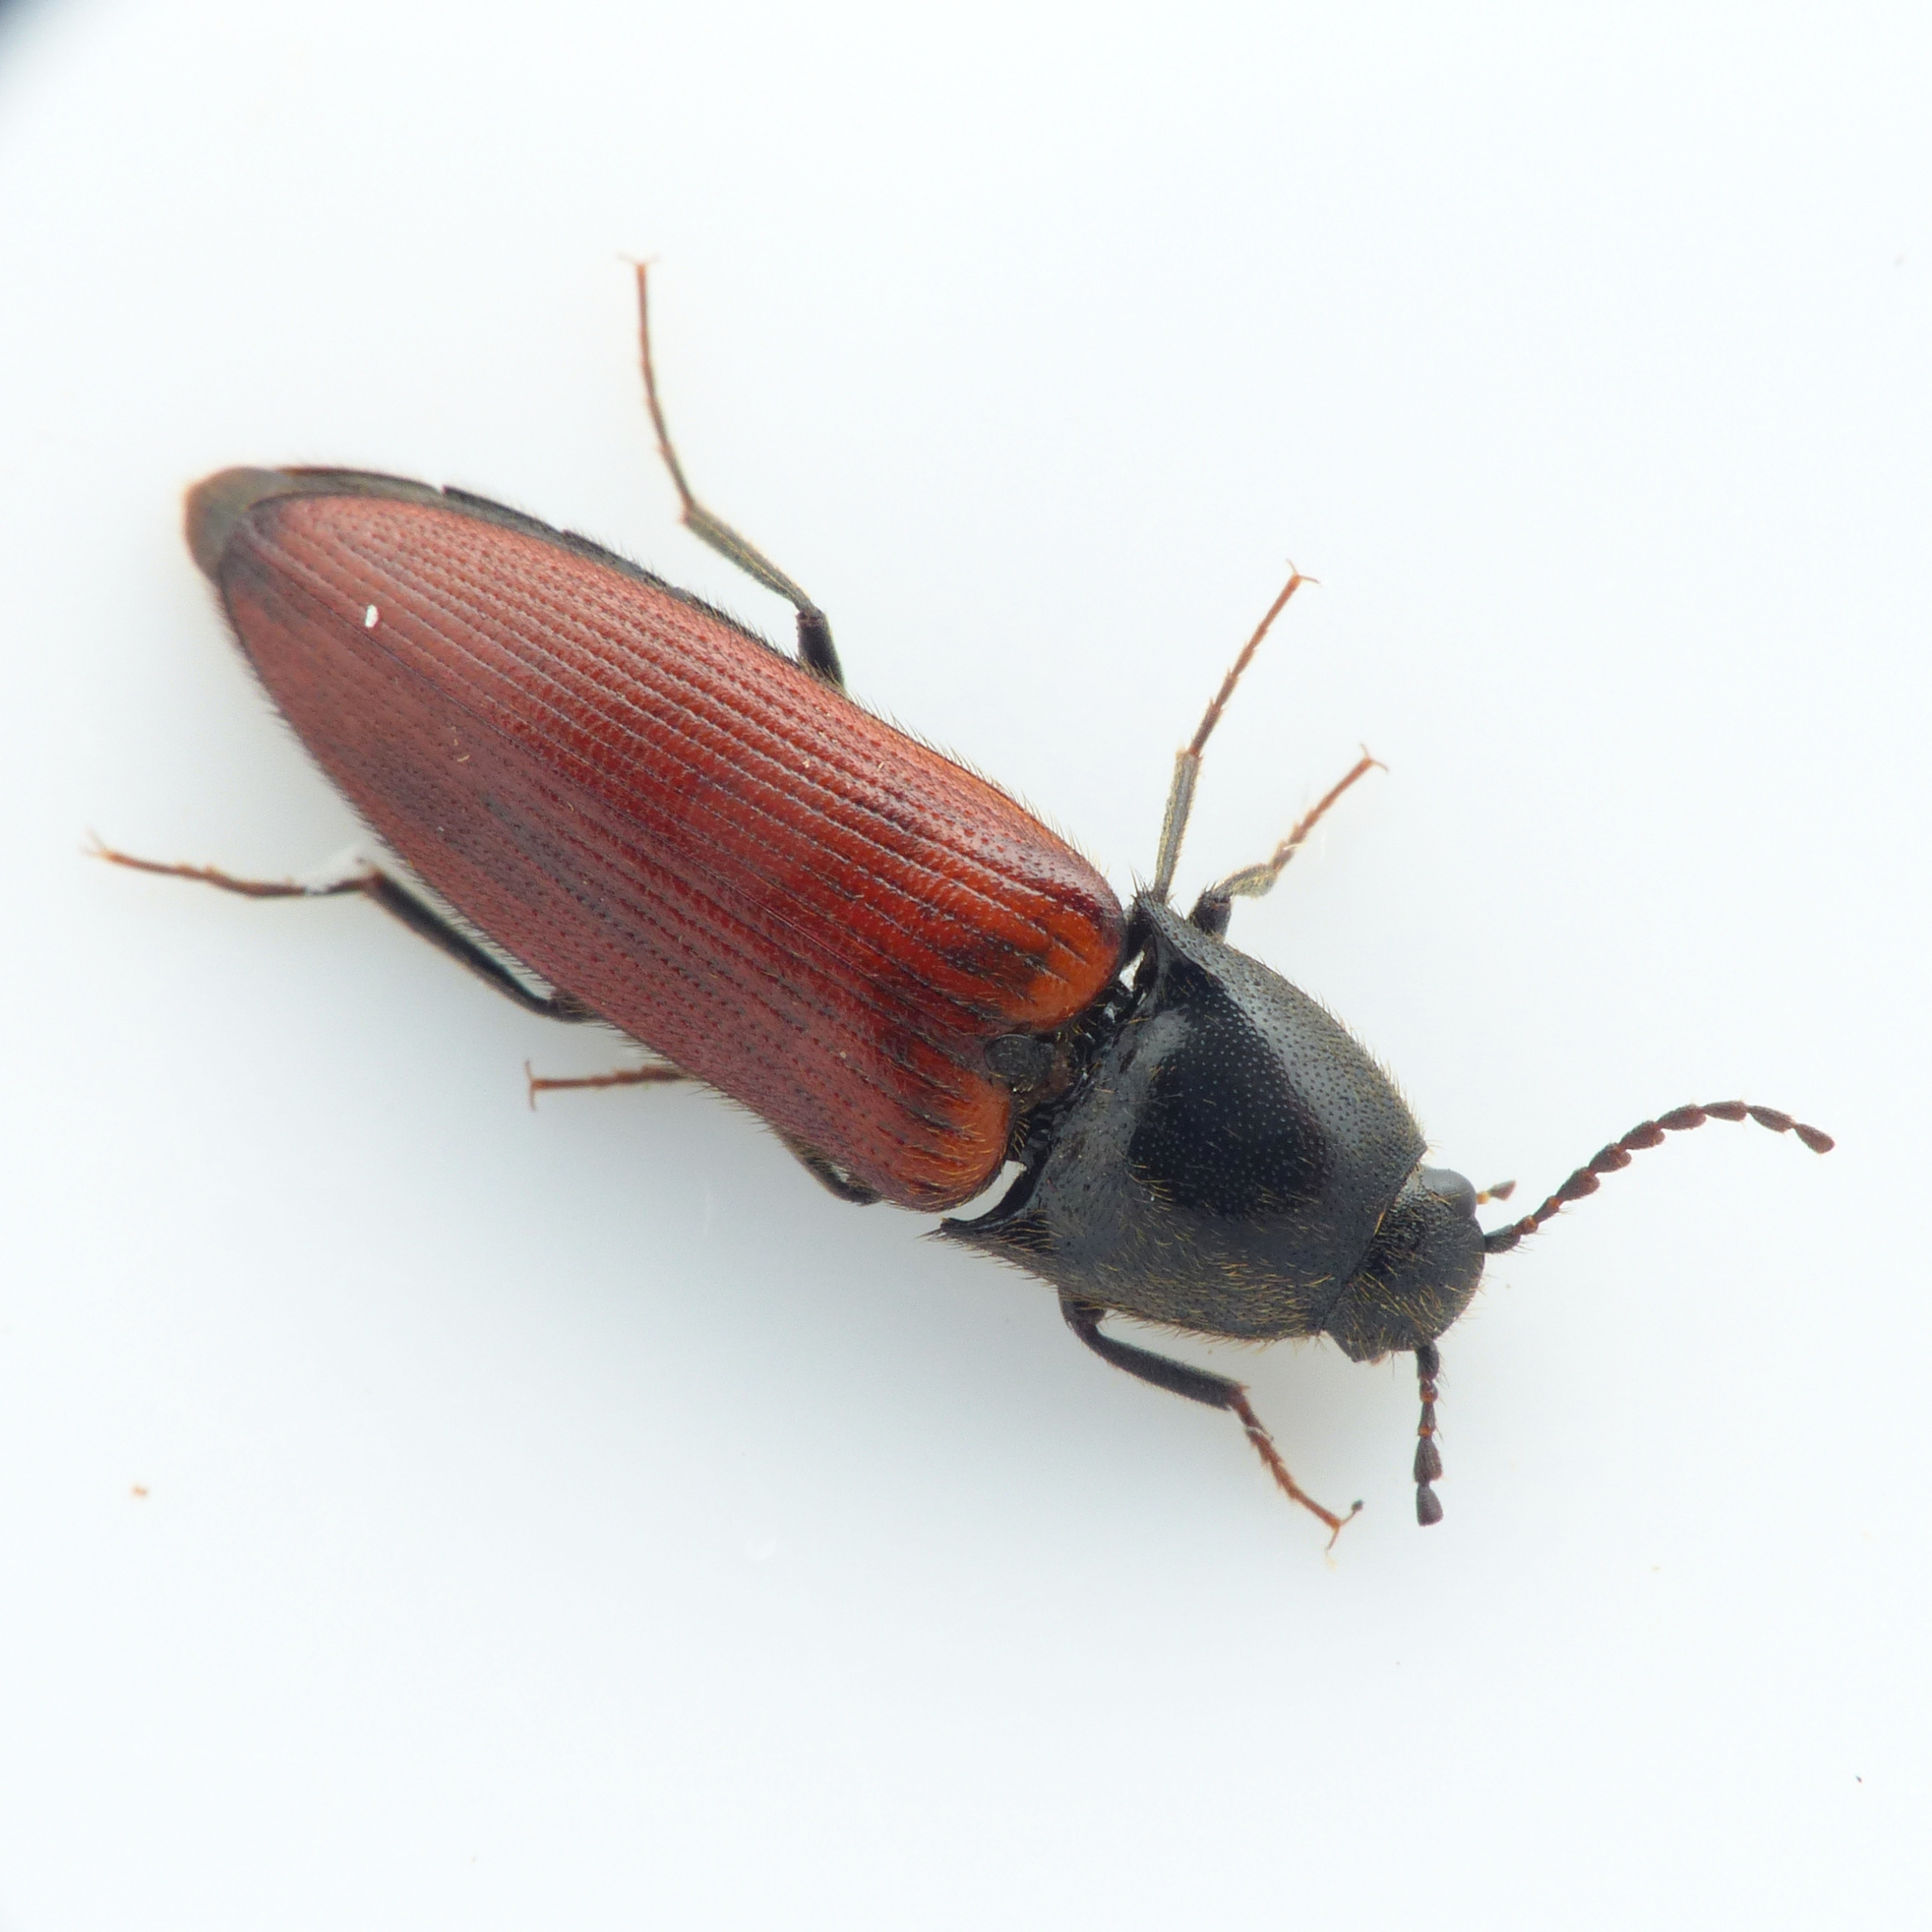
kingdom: Animalia
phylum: Arthropoda
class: Insecta
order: Coleoptera
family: Elateridae
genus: Ampedus
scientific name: Ampedus hjorti
